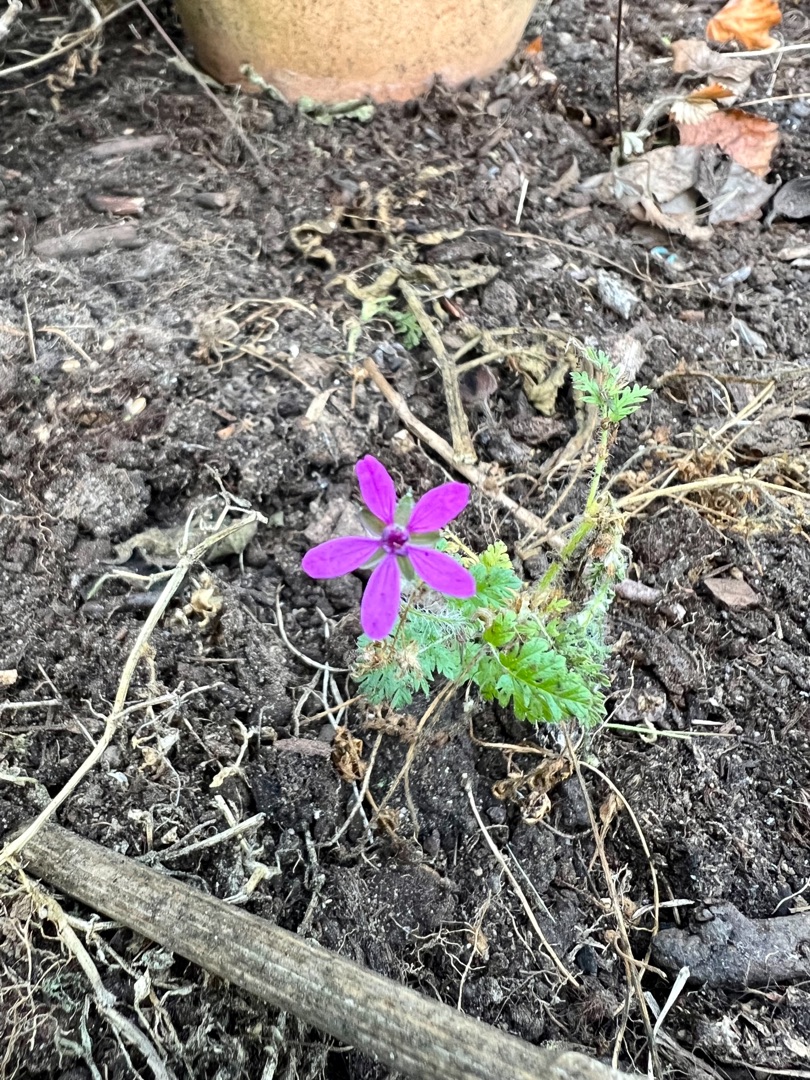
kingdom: Plantae
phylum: Tracheophyta
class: Magnoliopsida
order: Geraniales
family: Geraniaceae
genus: Erodium
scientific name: Erodium cicutarium
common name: Hejrenæb
